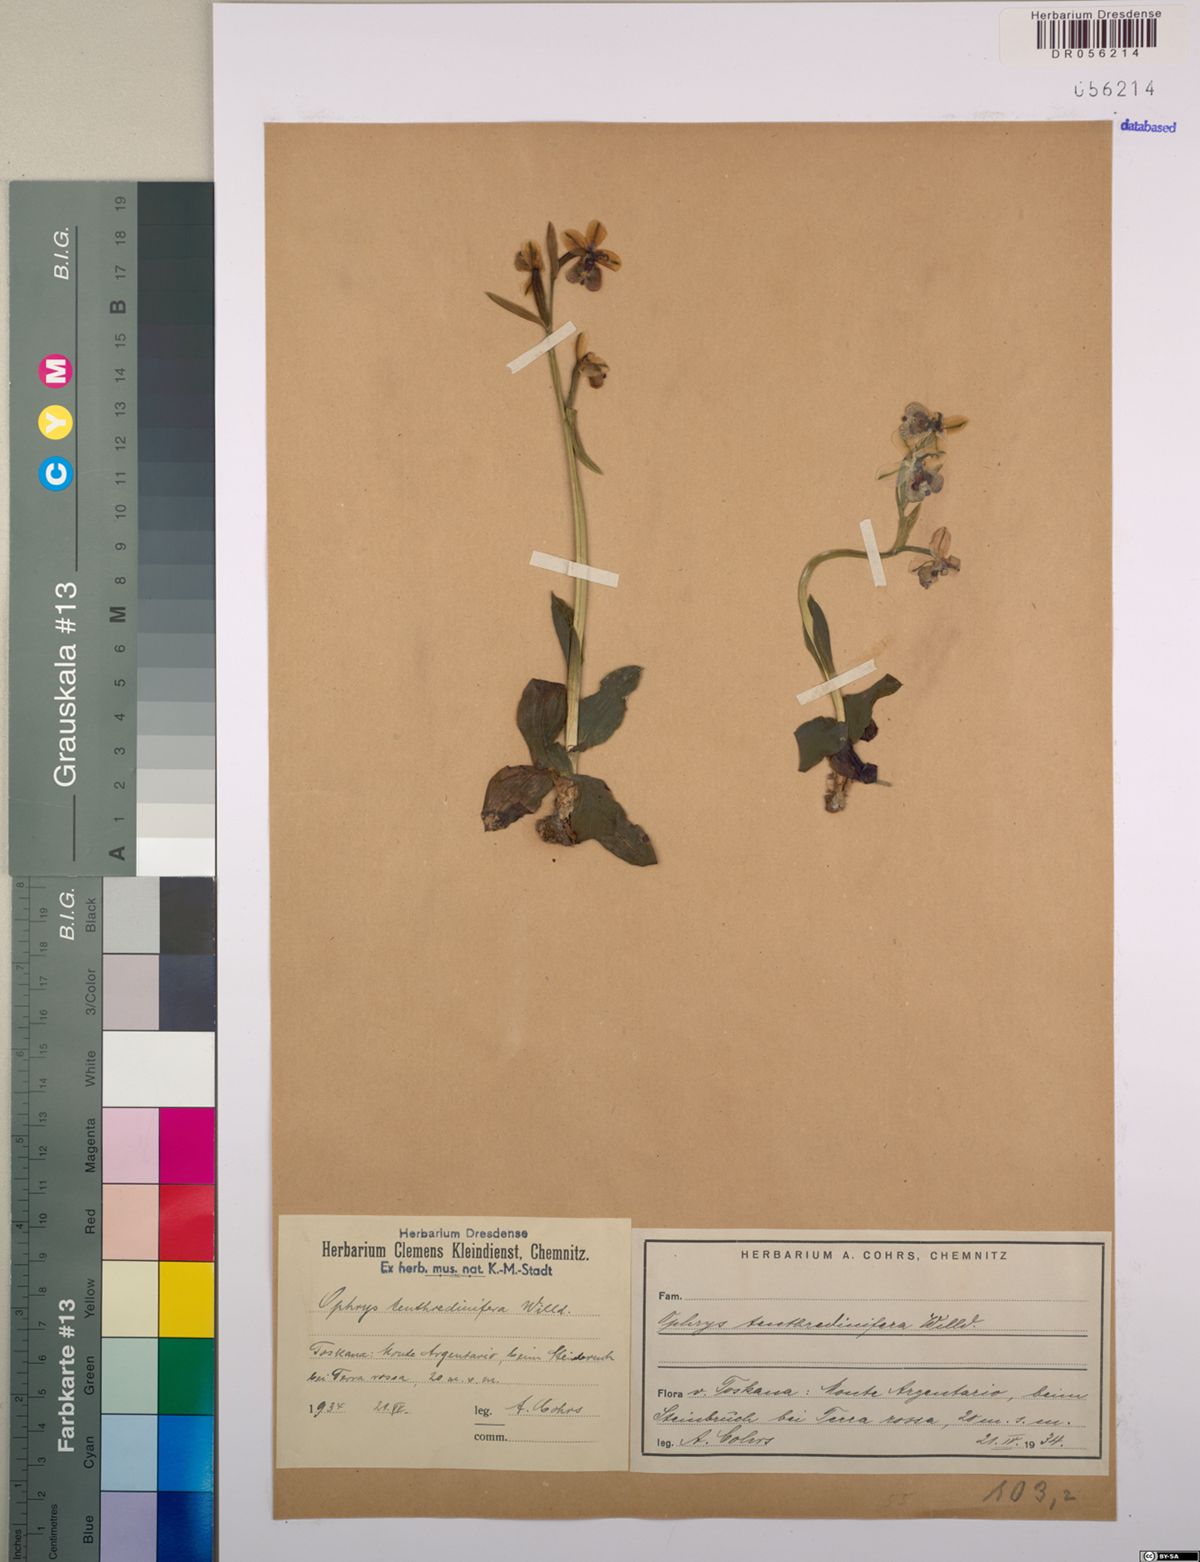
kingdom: Plantae
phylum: Tracheophyta
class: Liliopsida
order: Asparagales
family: Orchidaceae
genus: Ophrys
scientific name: Ophrys tenthredinifera
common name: Sawfly orchid
